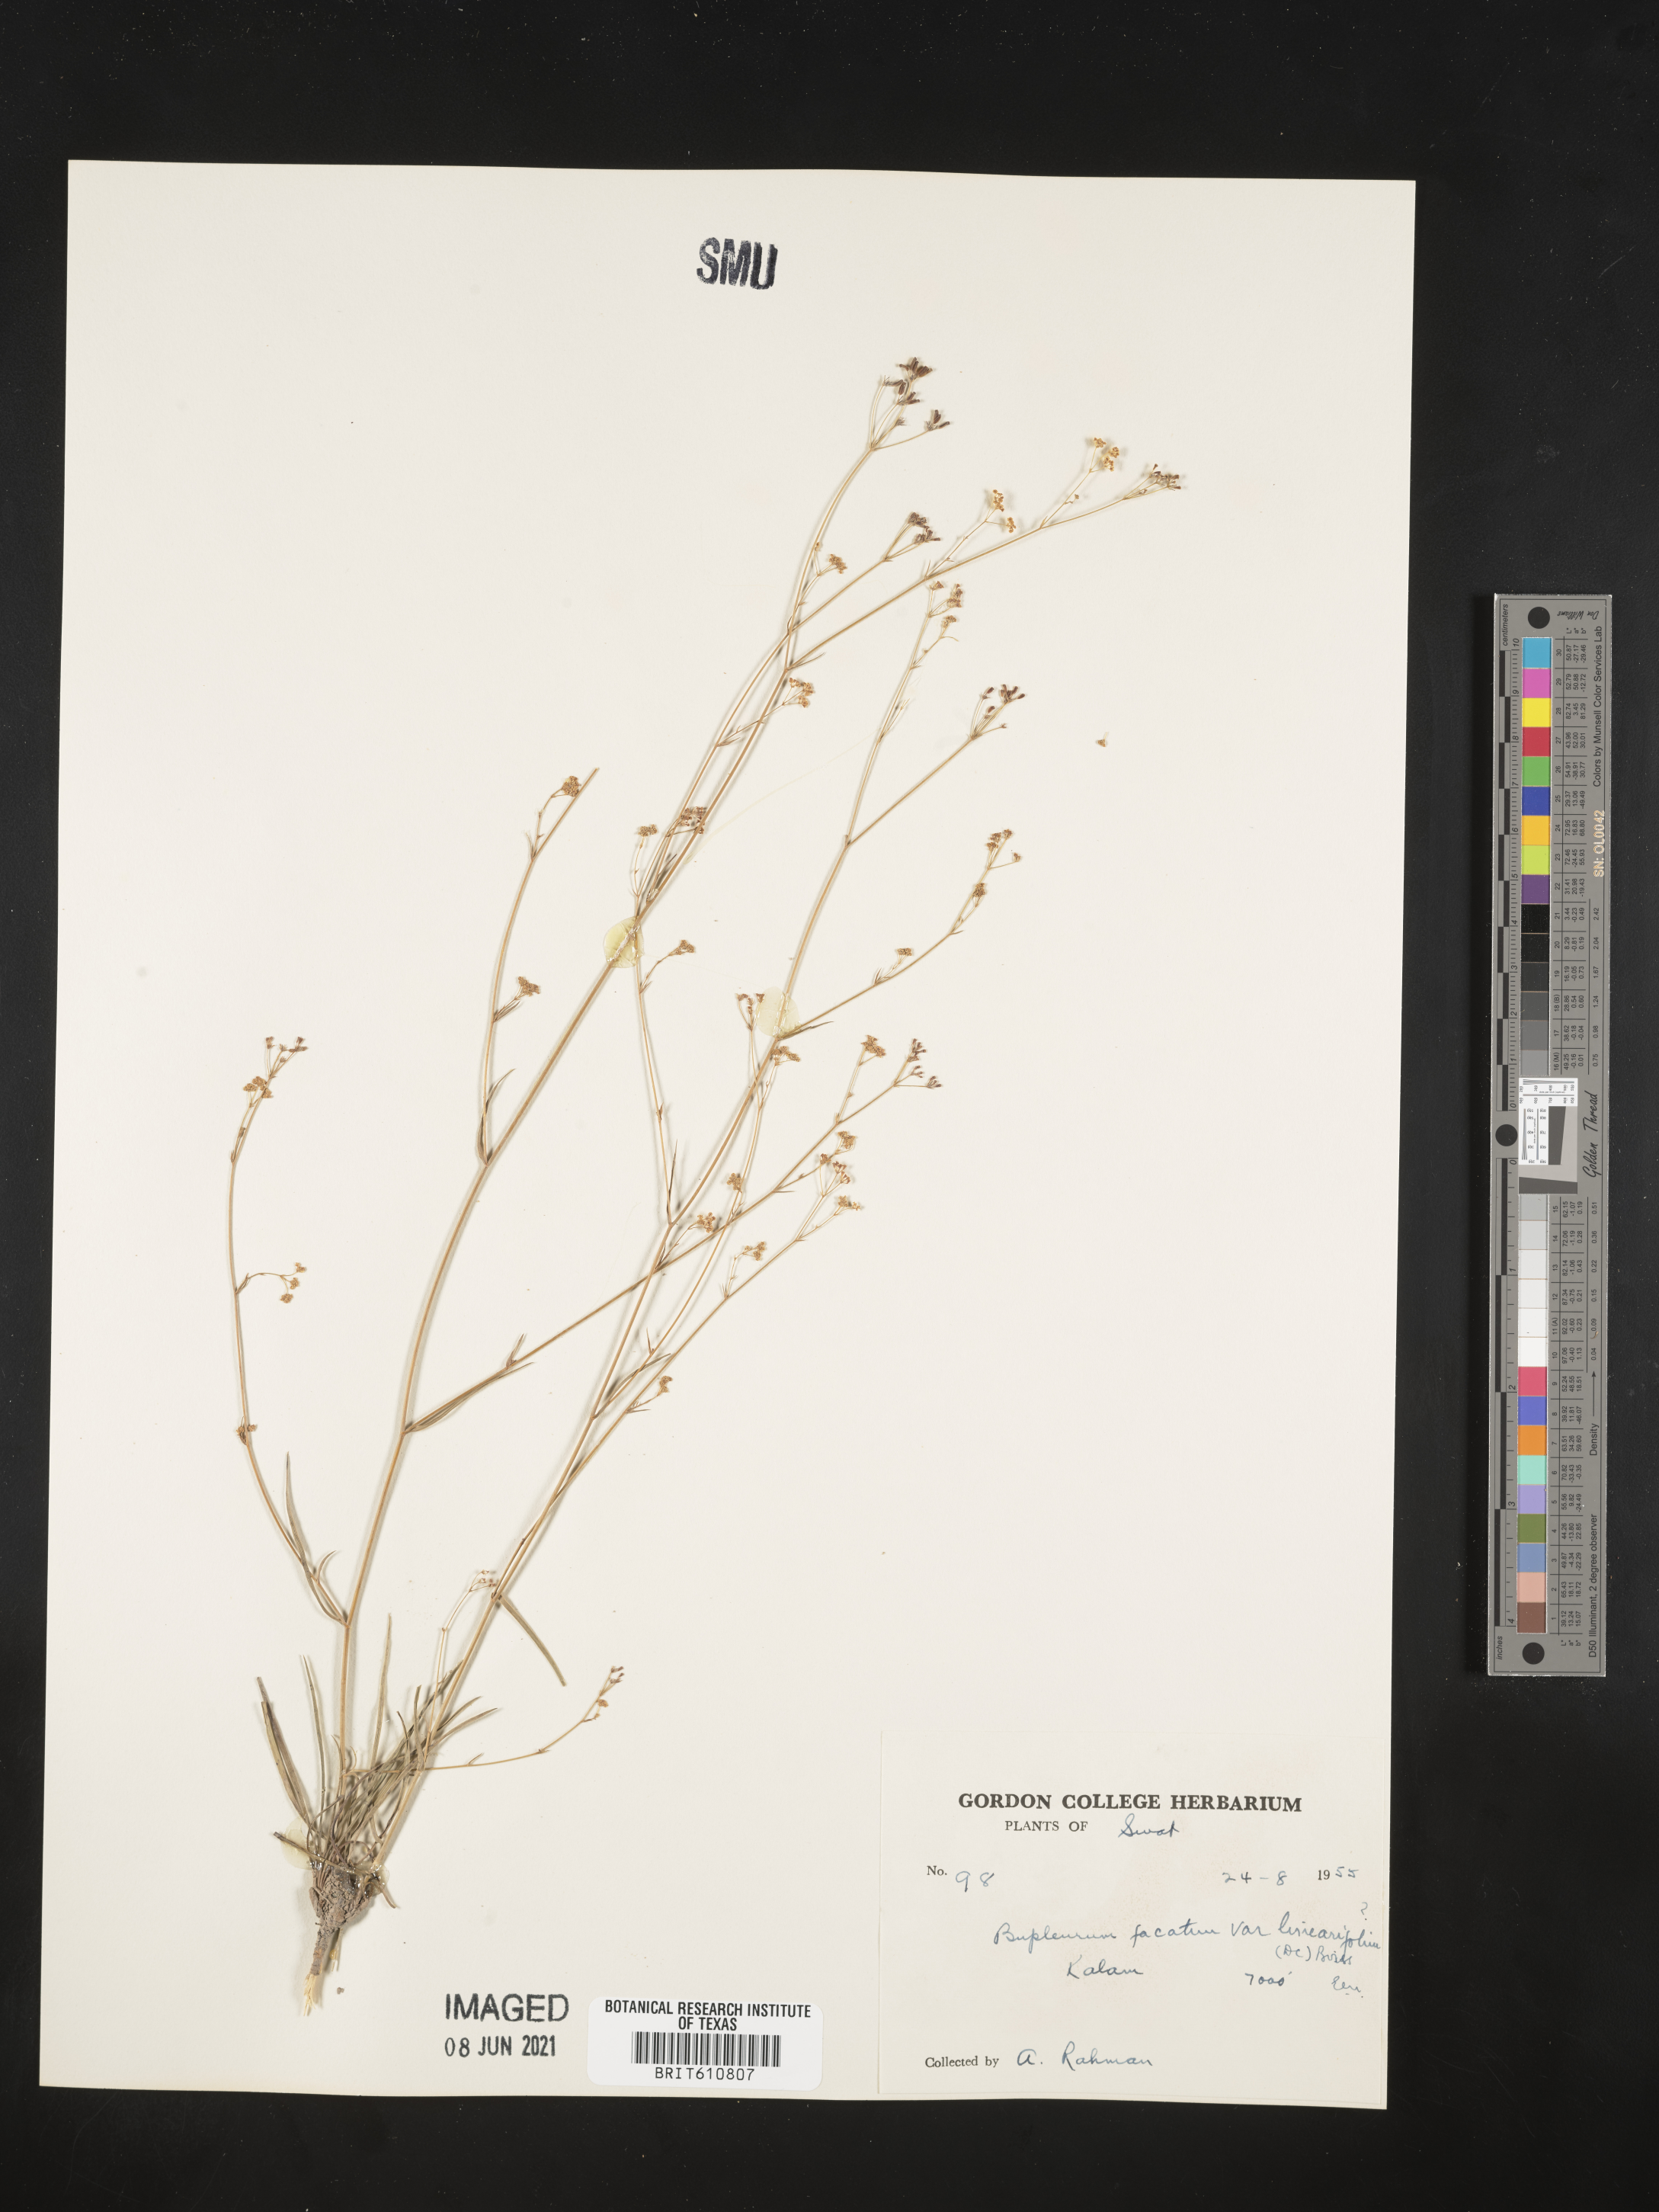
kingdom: Plantae
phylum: Tracheophyta
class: Magnoliopsida
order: Apiales
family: Apiaceae
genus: Bupleurum
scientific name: Bupleurum exaltatum
